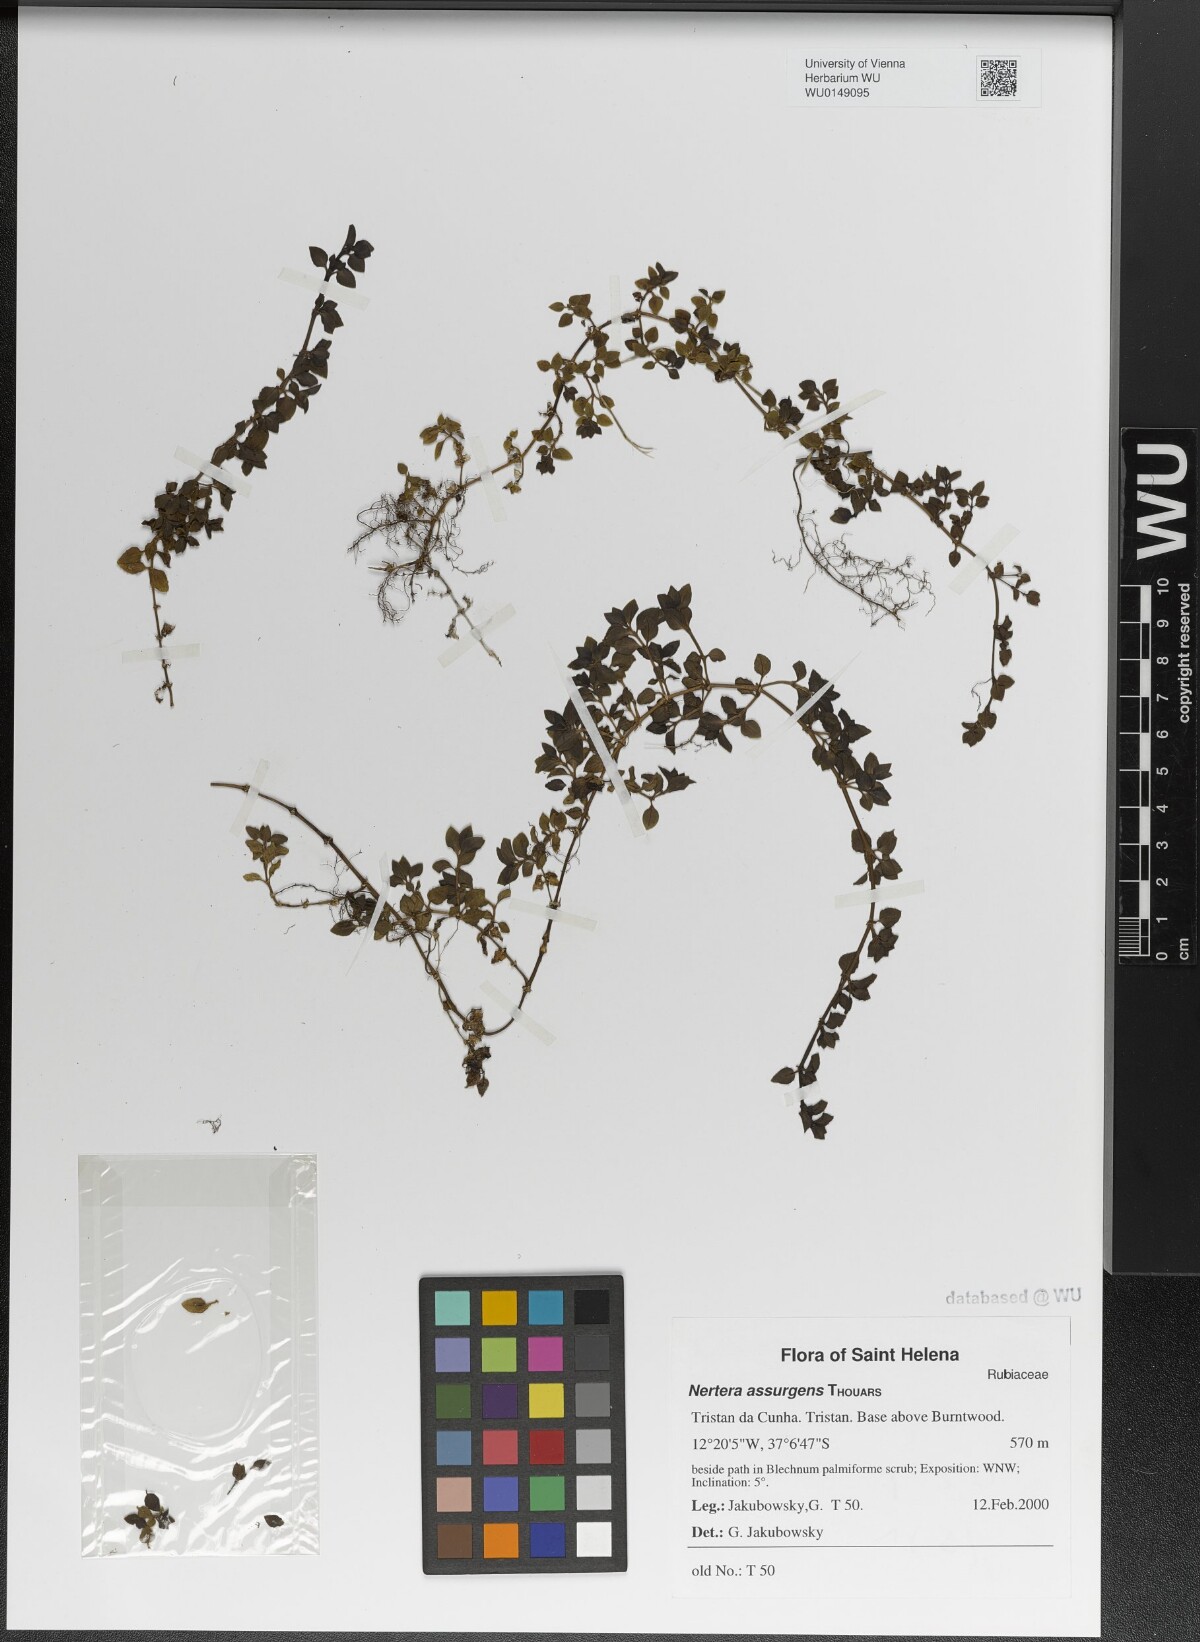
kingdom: Plantae
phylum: Tracheophyta
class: Magnoliopsida
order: Gentianales
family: Rubiaceae
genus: Nertera
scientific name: Nertera granadensis
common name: Beadplant
